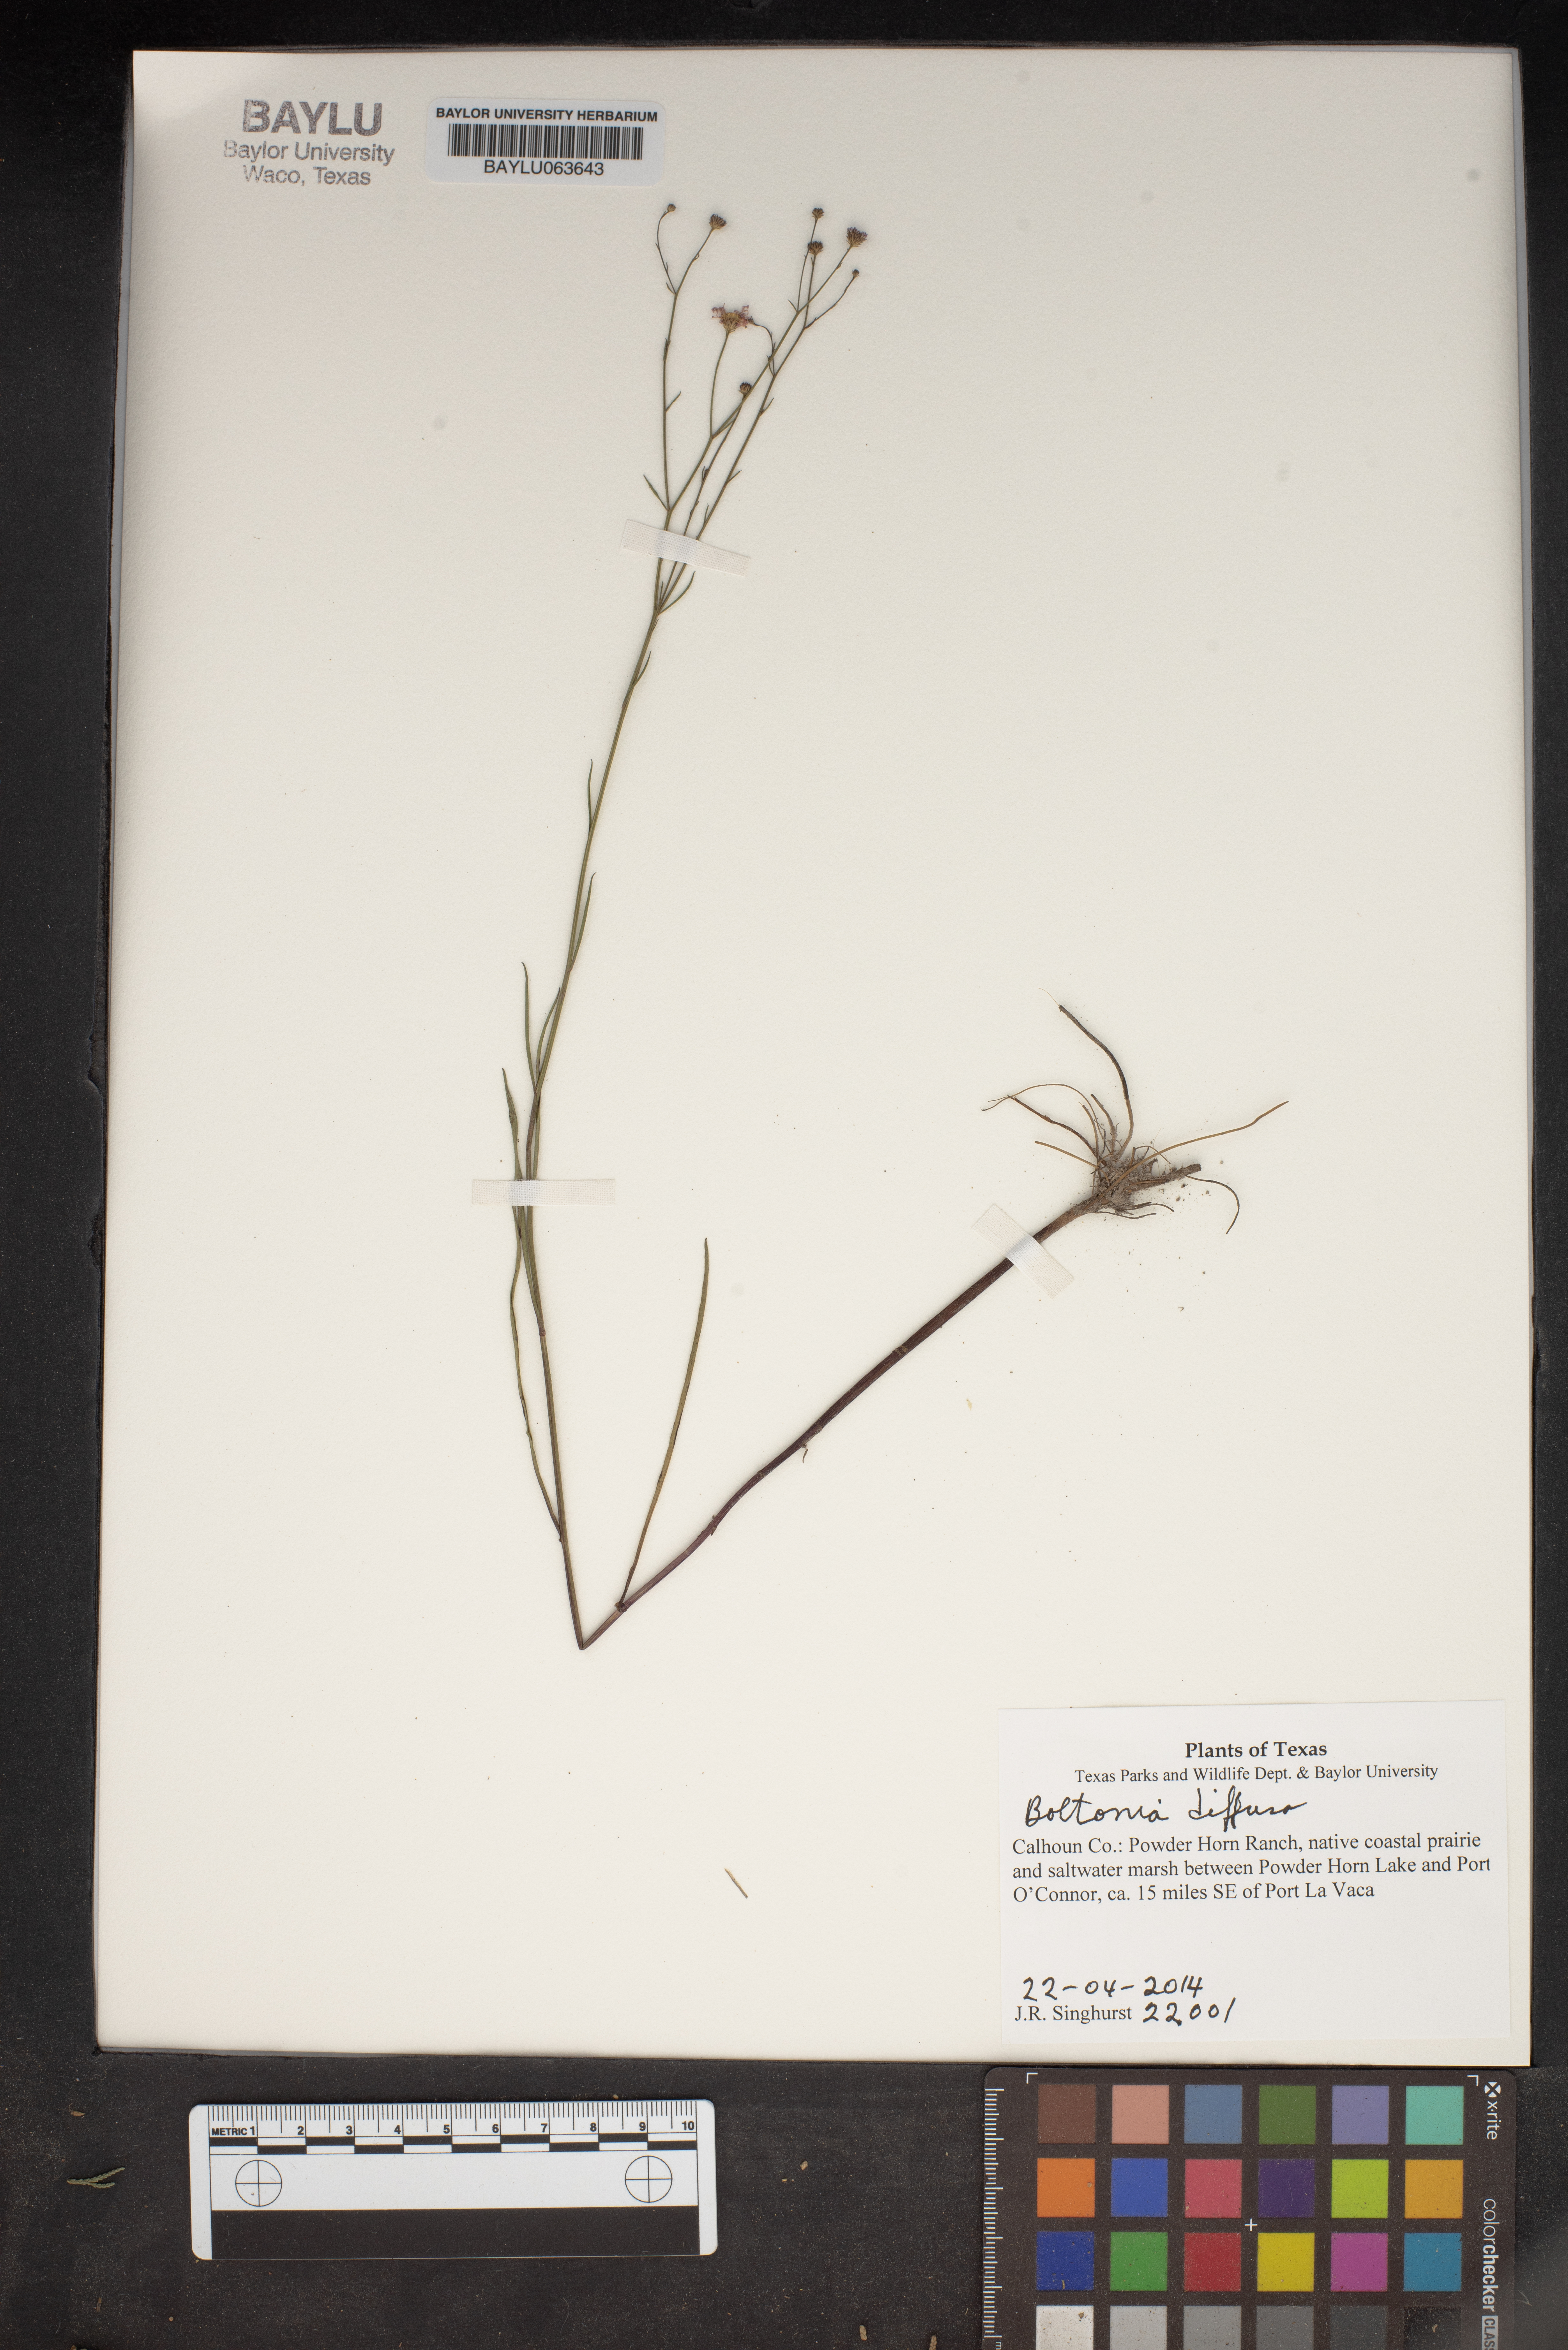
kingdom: Plantae
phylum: Tracheophyta
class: Magnoliopsida
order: Asterales
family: Asteraceae
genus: Boltonia
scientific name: Boltonia diffusa
